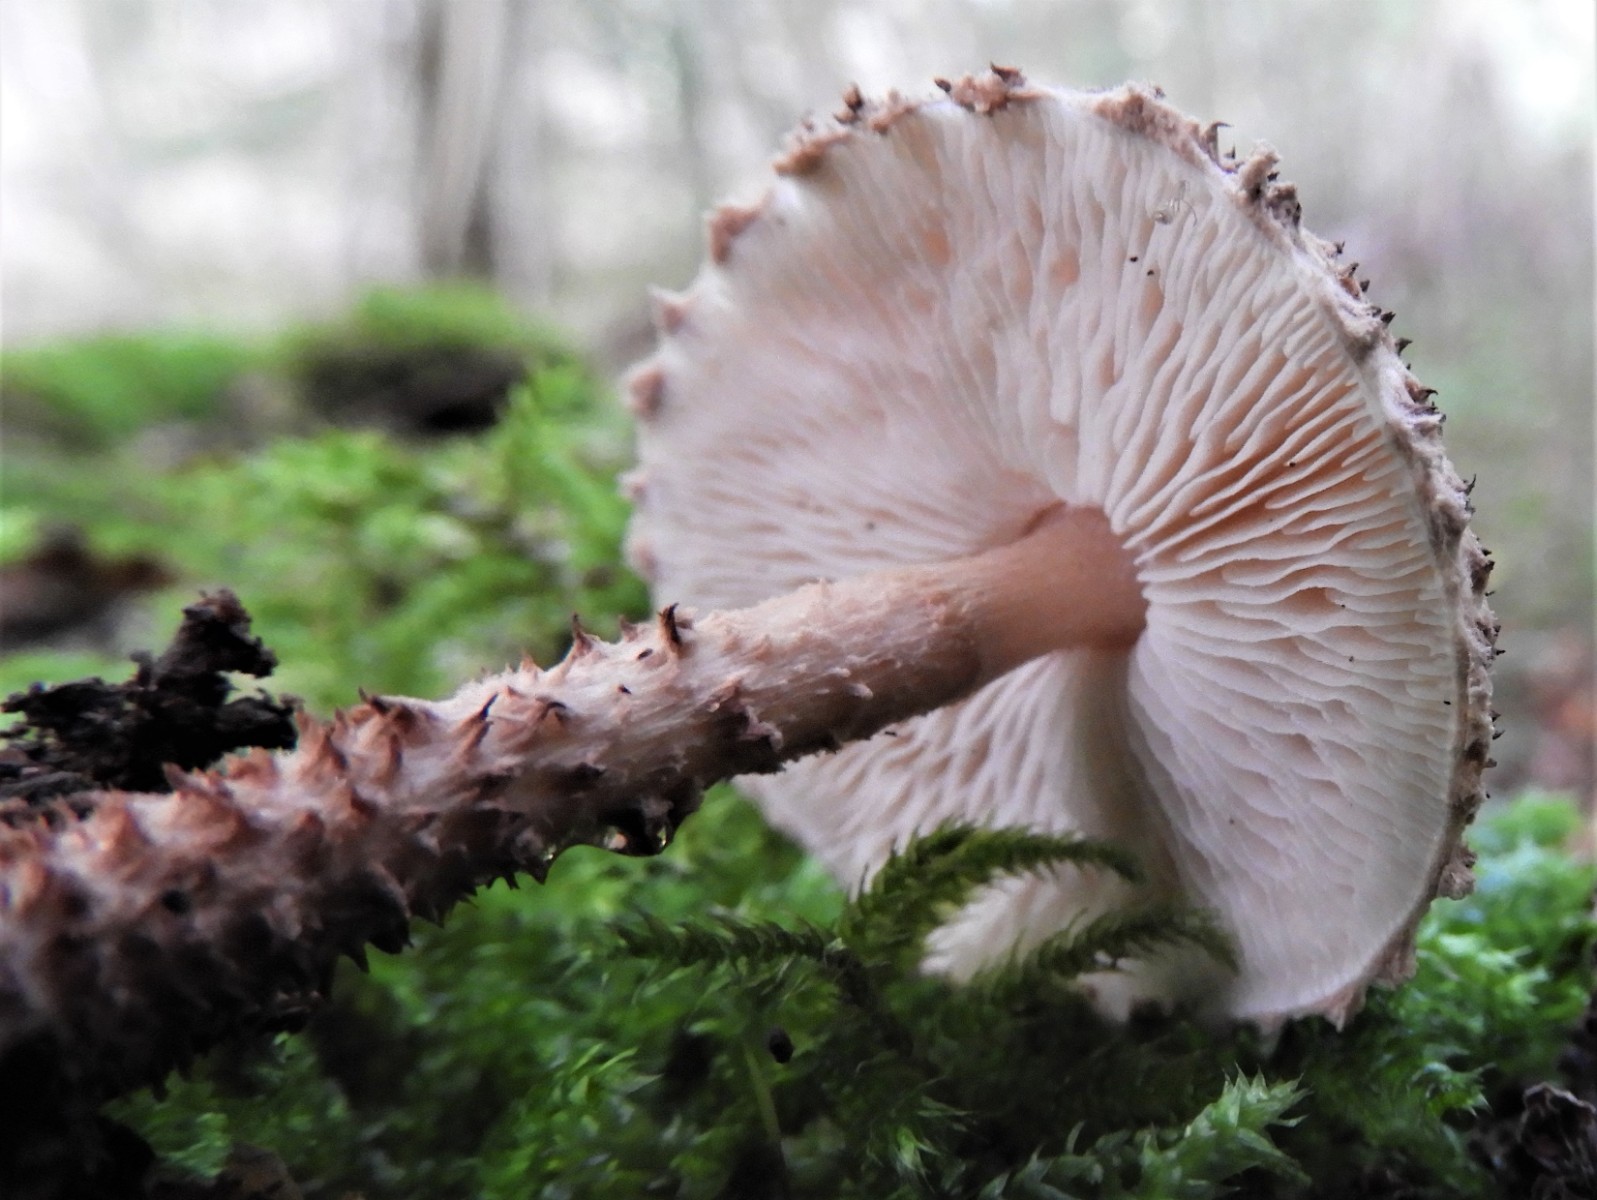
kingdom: Fungi
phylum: Basidiomycota
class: Agaricomycetes
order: Agaricales
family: Agaricaceae
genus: Echinoderma
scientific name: Echinoderma echinaceum
